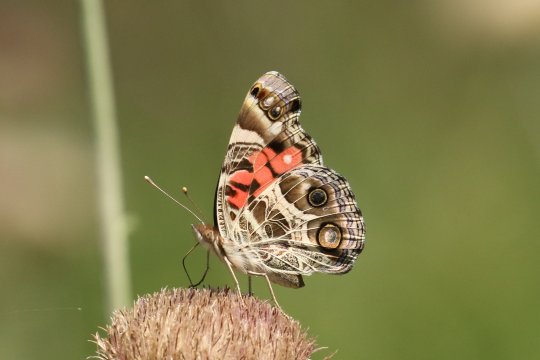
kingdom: Animalia
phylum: Arthropoda
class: Insecta
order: Lepidoptera
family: Nymphalidae
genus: Vanessa
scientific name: Vanessa virginiensis
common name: American Lady
